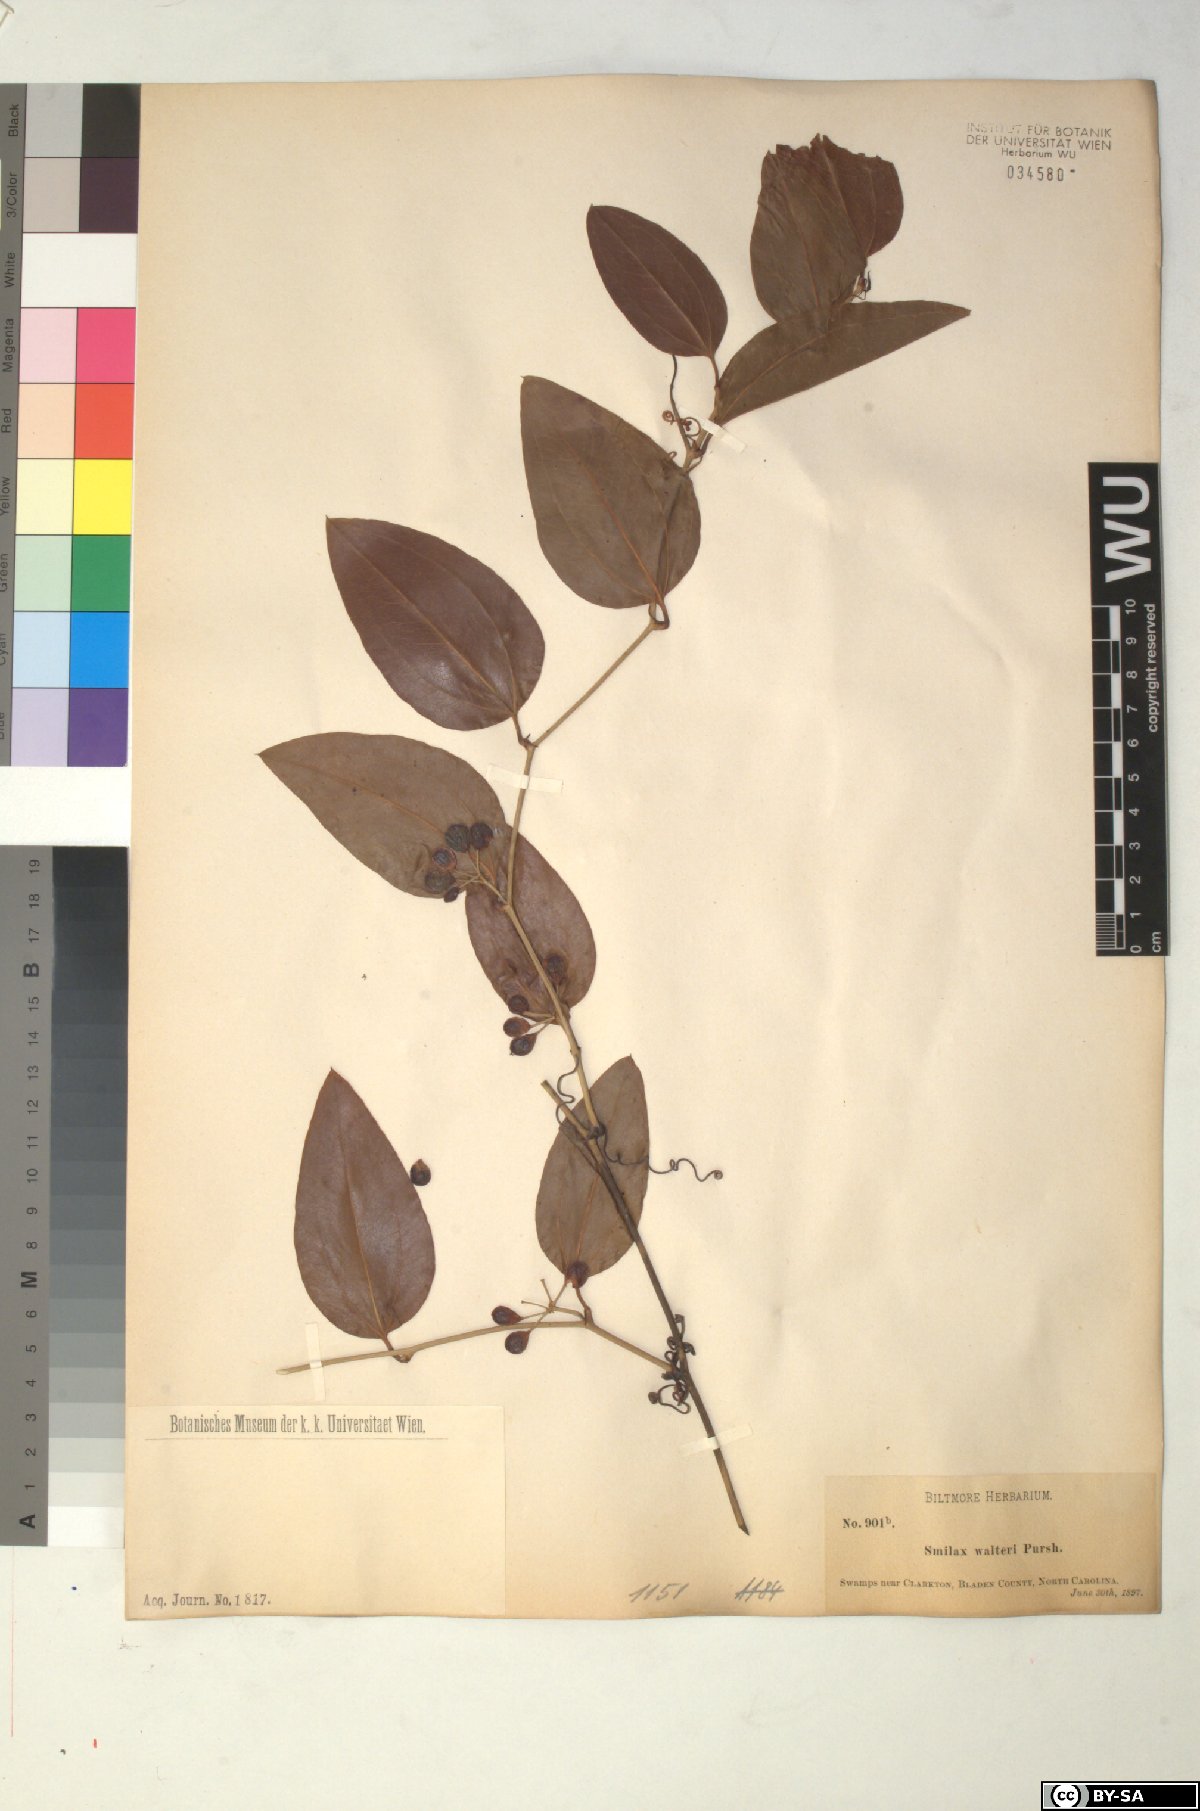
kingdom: Plantae
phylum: Tracheophyta
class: Liliopsida
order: Liliales
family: Smilacaceae
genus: Smilax
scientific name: Smilax walteri
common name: Coral greenbrier
